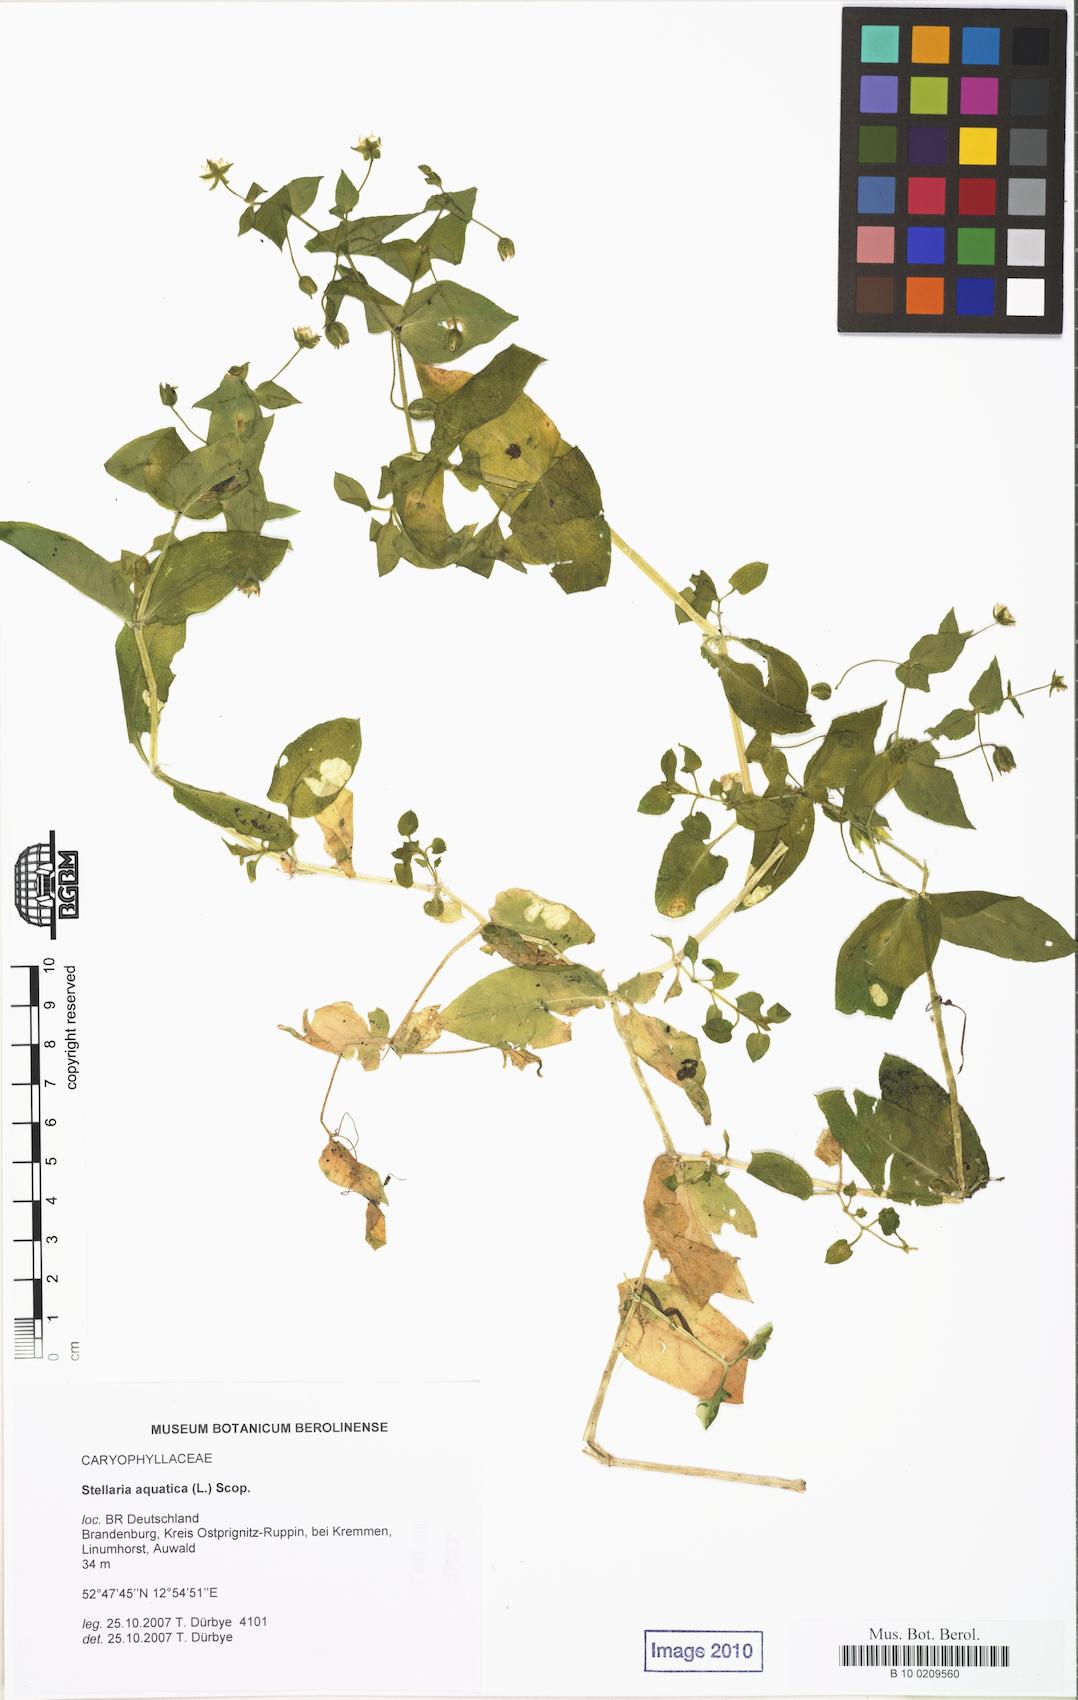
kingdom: Plantae
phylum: Tracheophyta
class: Magnoliopsida
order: Caryophyllales
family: Caryophyllaceae
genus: Stellaria
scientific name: Stellaria aquatica
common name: Water chickweed
